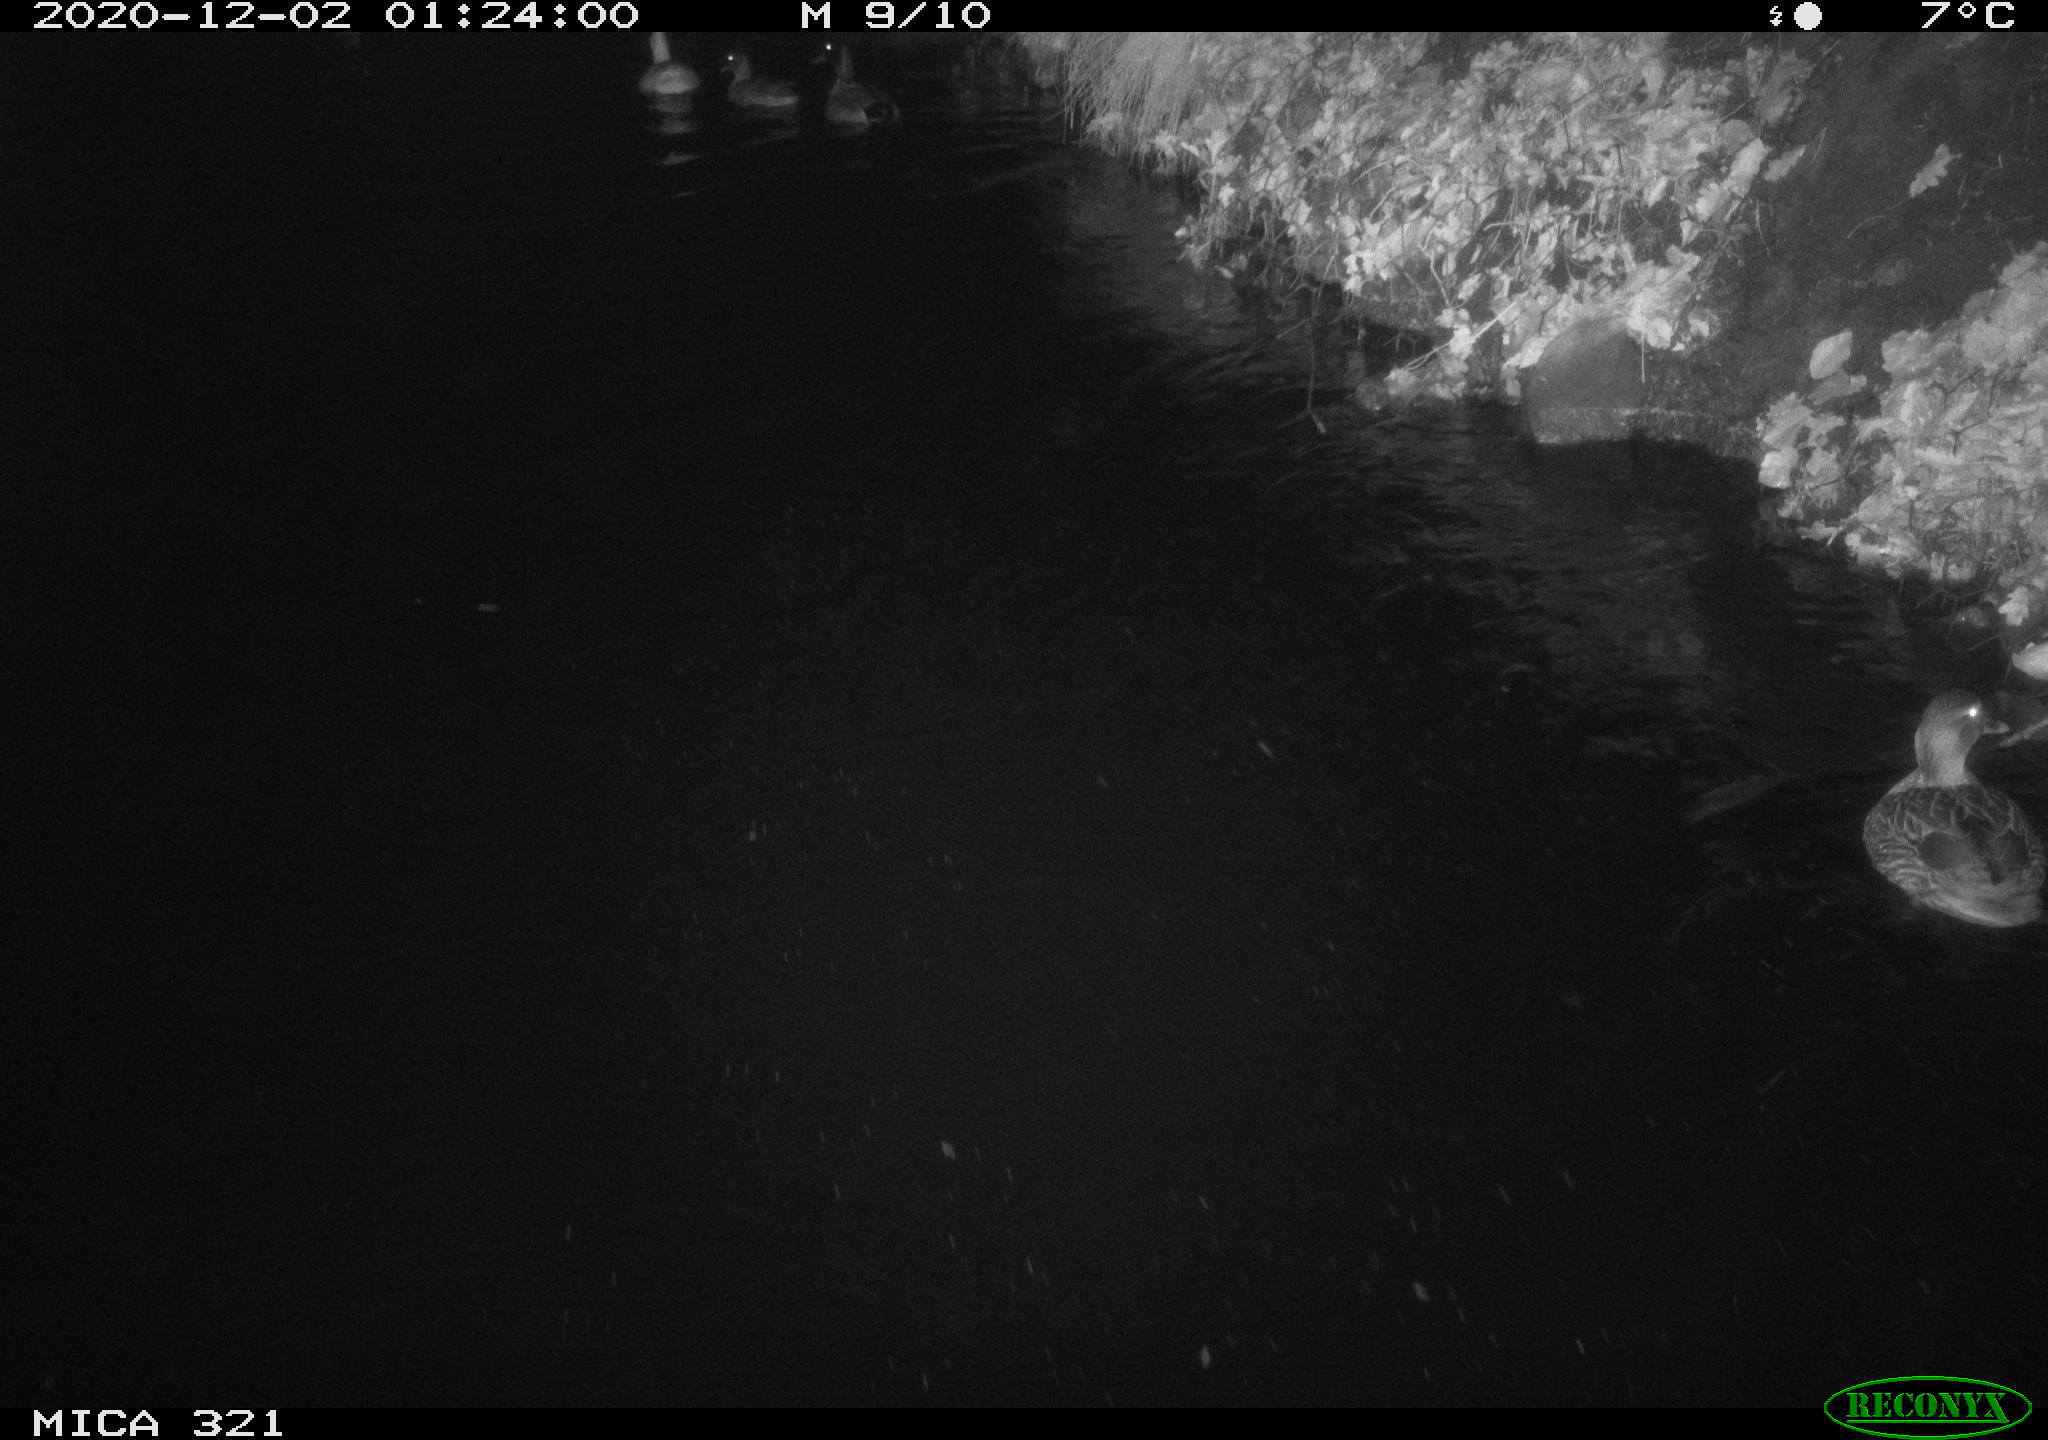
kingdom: Animalia
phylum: Chordata
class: Aves
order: Anseriformes
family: Anatidae
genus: Anas
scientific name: Anas platyrhynchos
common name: Mallard
